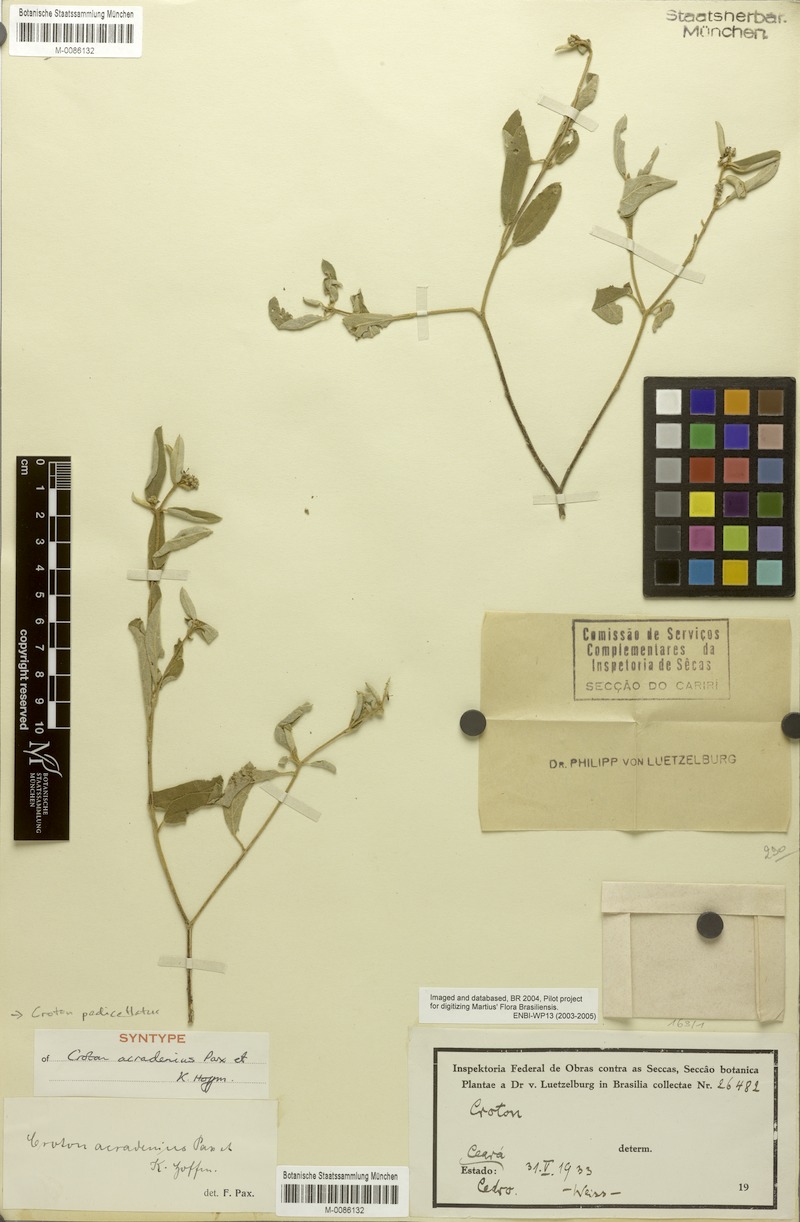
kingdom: Plantae
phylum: Tracheophyta
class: Magnoliopsida
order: Malpighiales
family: Euphorbiaceae
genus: Croton
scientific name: Croton pedicellatus
